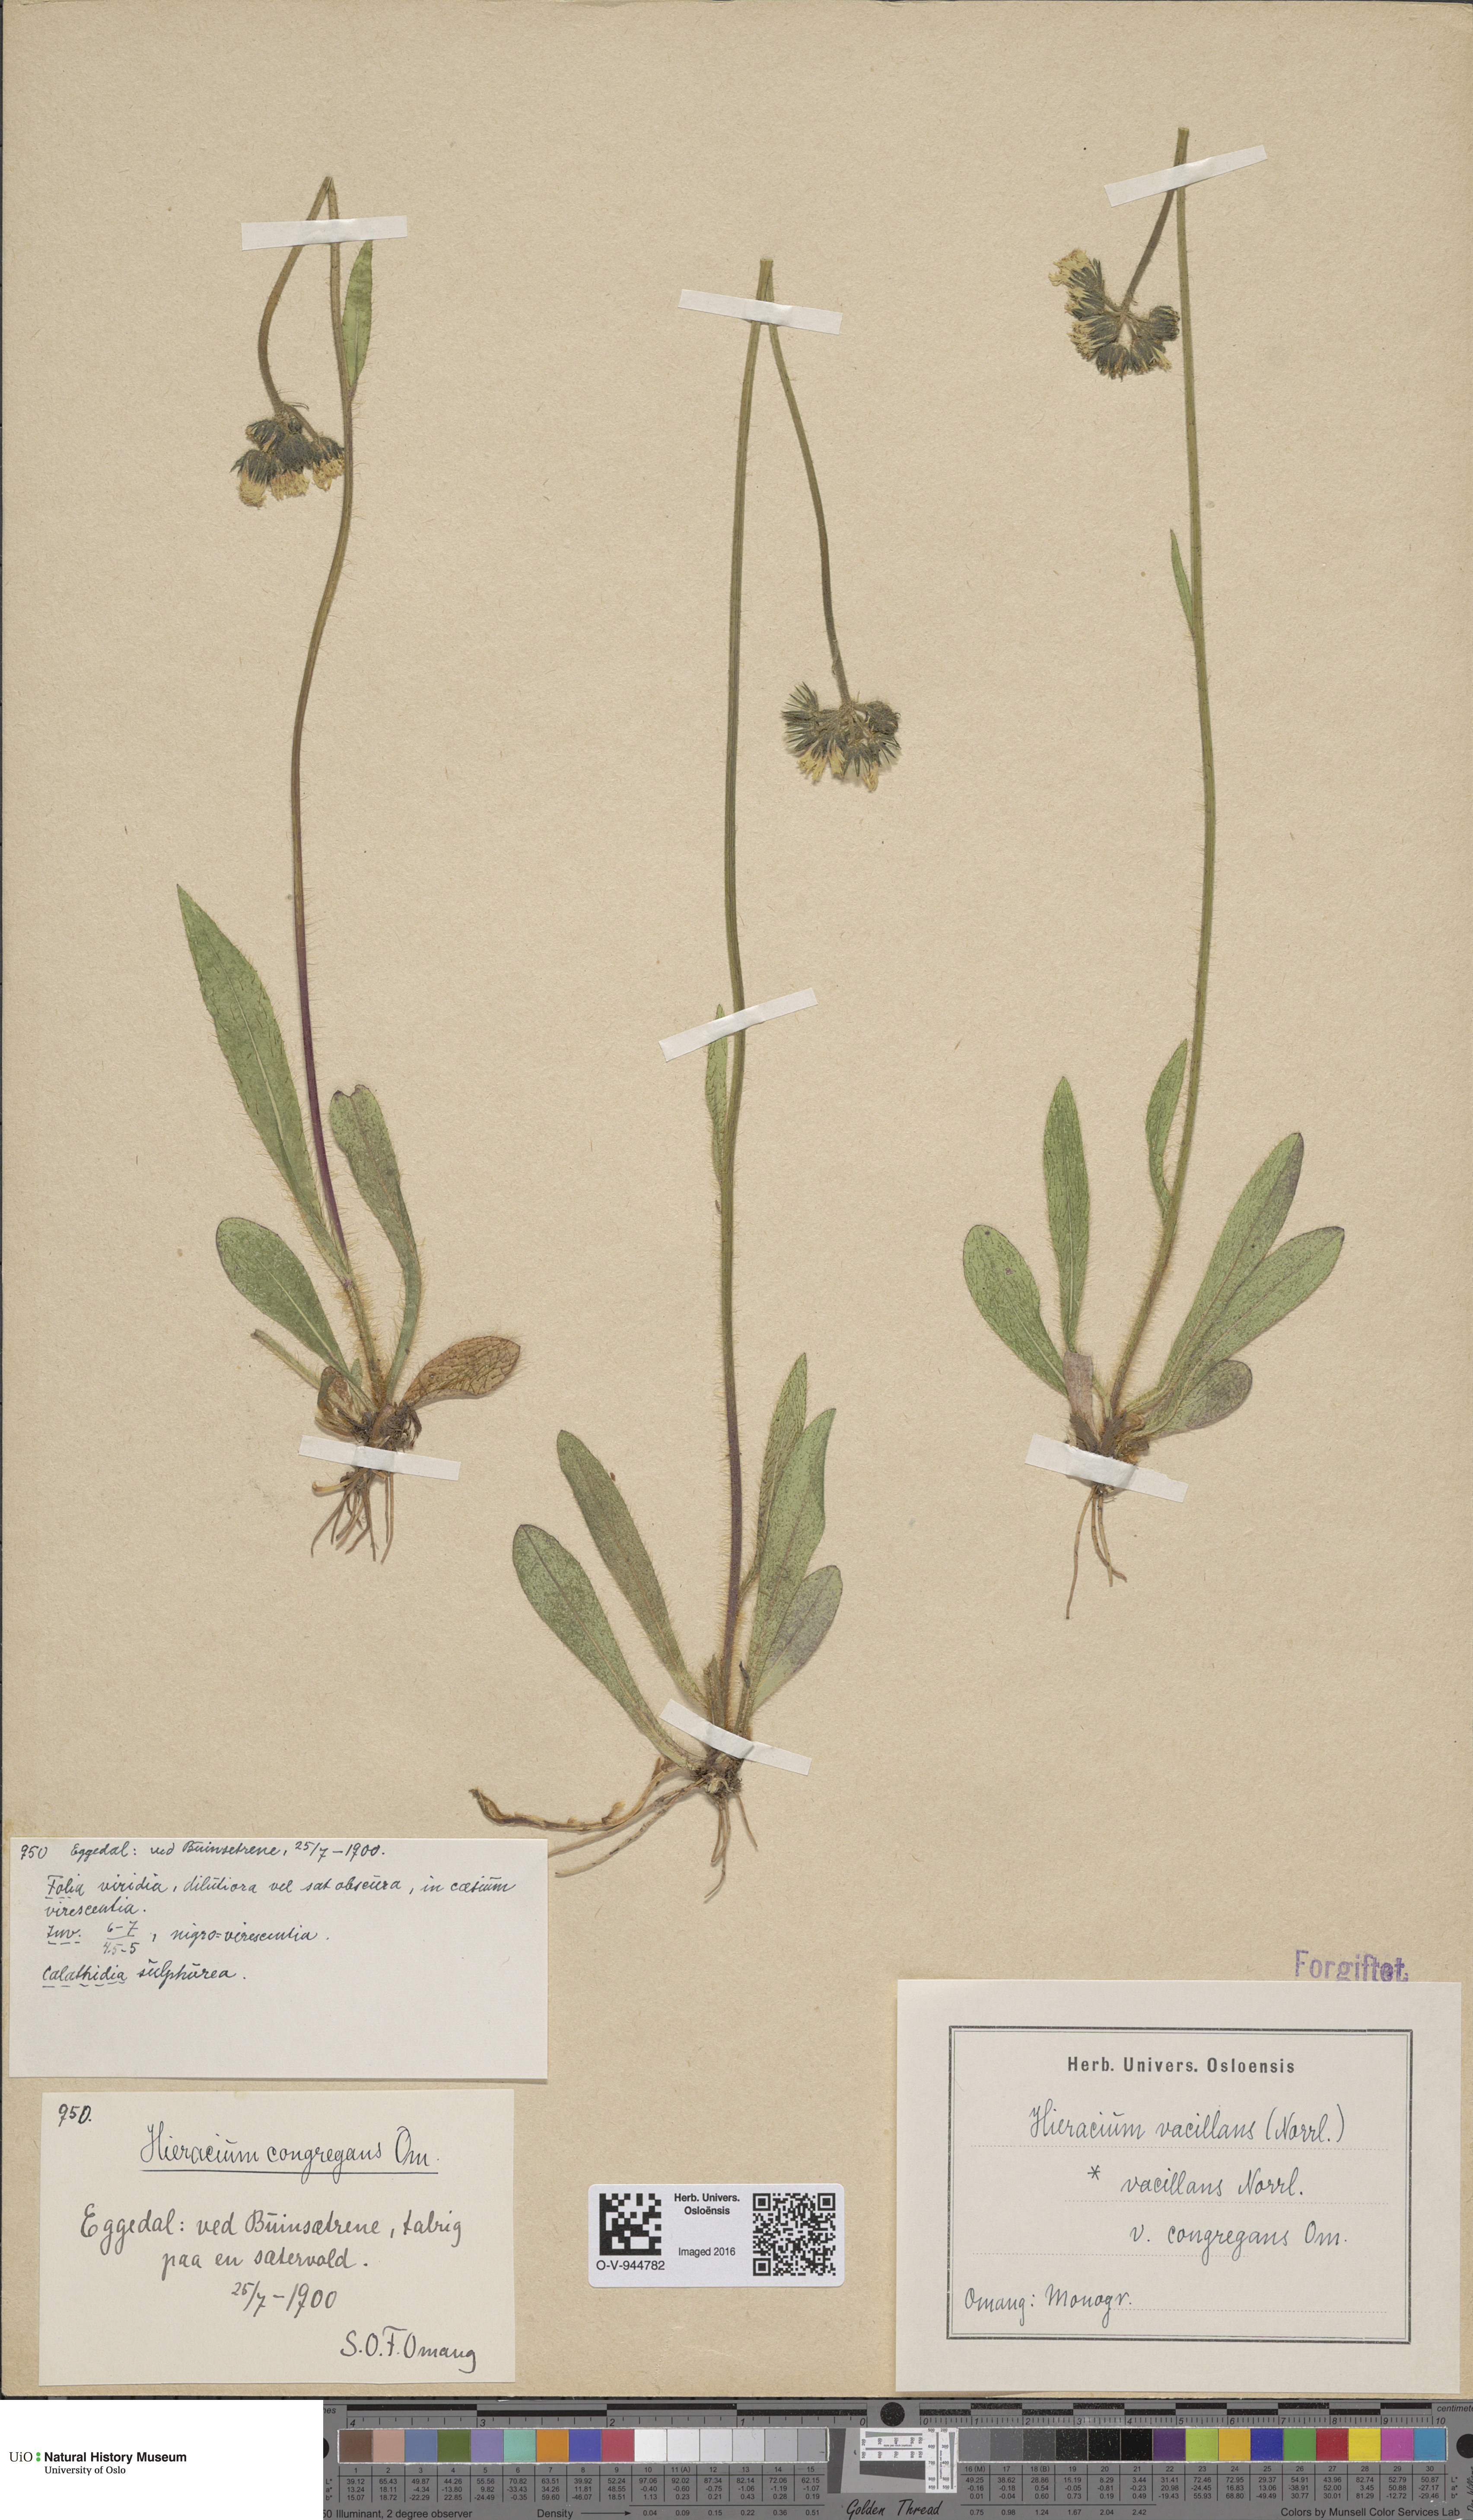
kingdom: Plantae
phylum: Tracheophyta
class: Magnoliopsida
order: Asterales
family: Asteraceae
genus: Pilosella
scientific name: Pilosella glomerata
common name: Queen devil hawkweed
